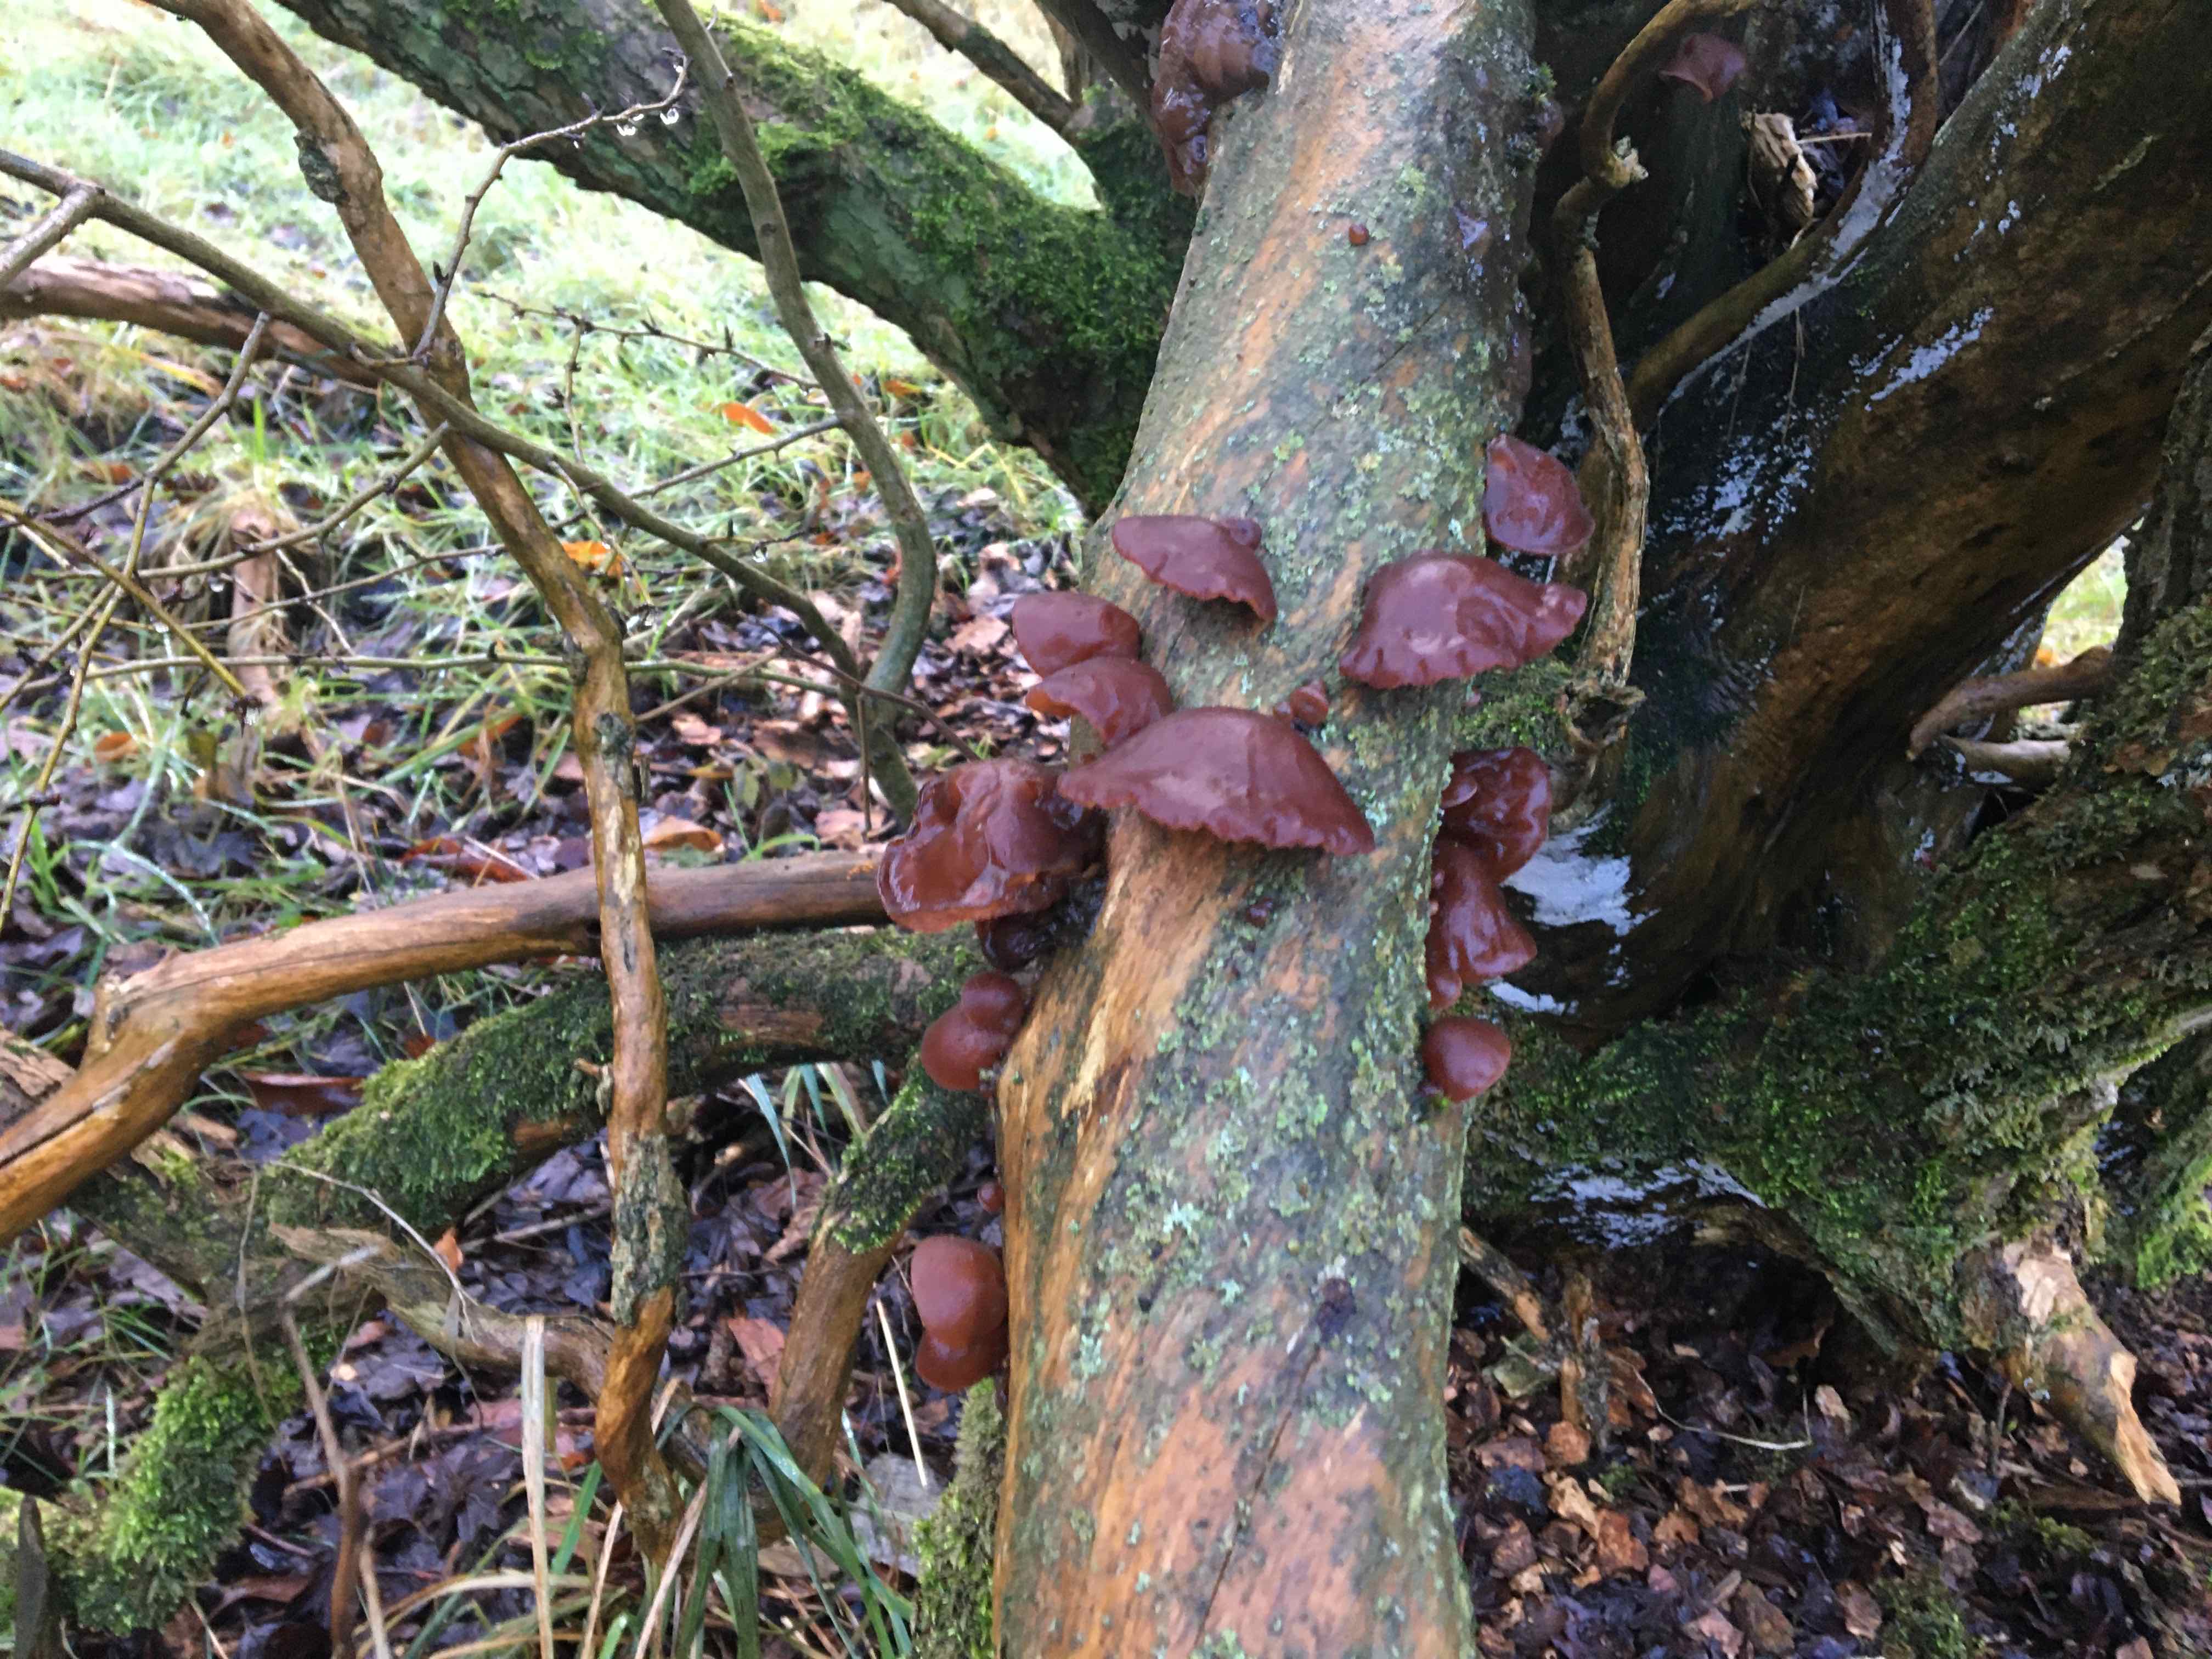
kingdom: Fungi
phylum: Basidiomycota
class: Agaricomycetes
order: Auriculariales
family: Auriculariaceae
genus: Auricularia
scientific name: Auricularia auricula-judae
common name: almindelig judasøre
